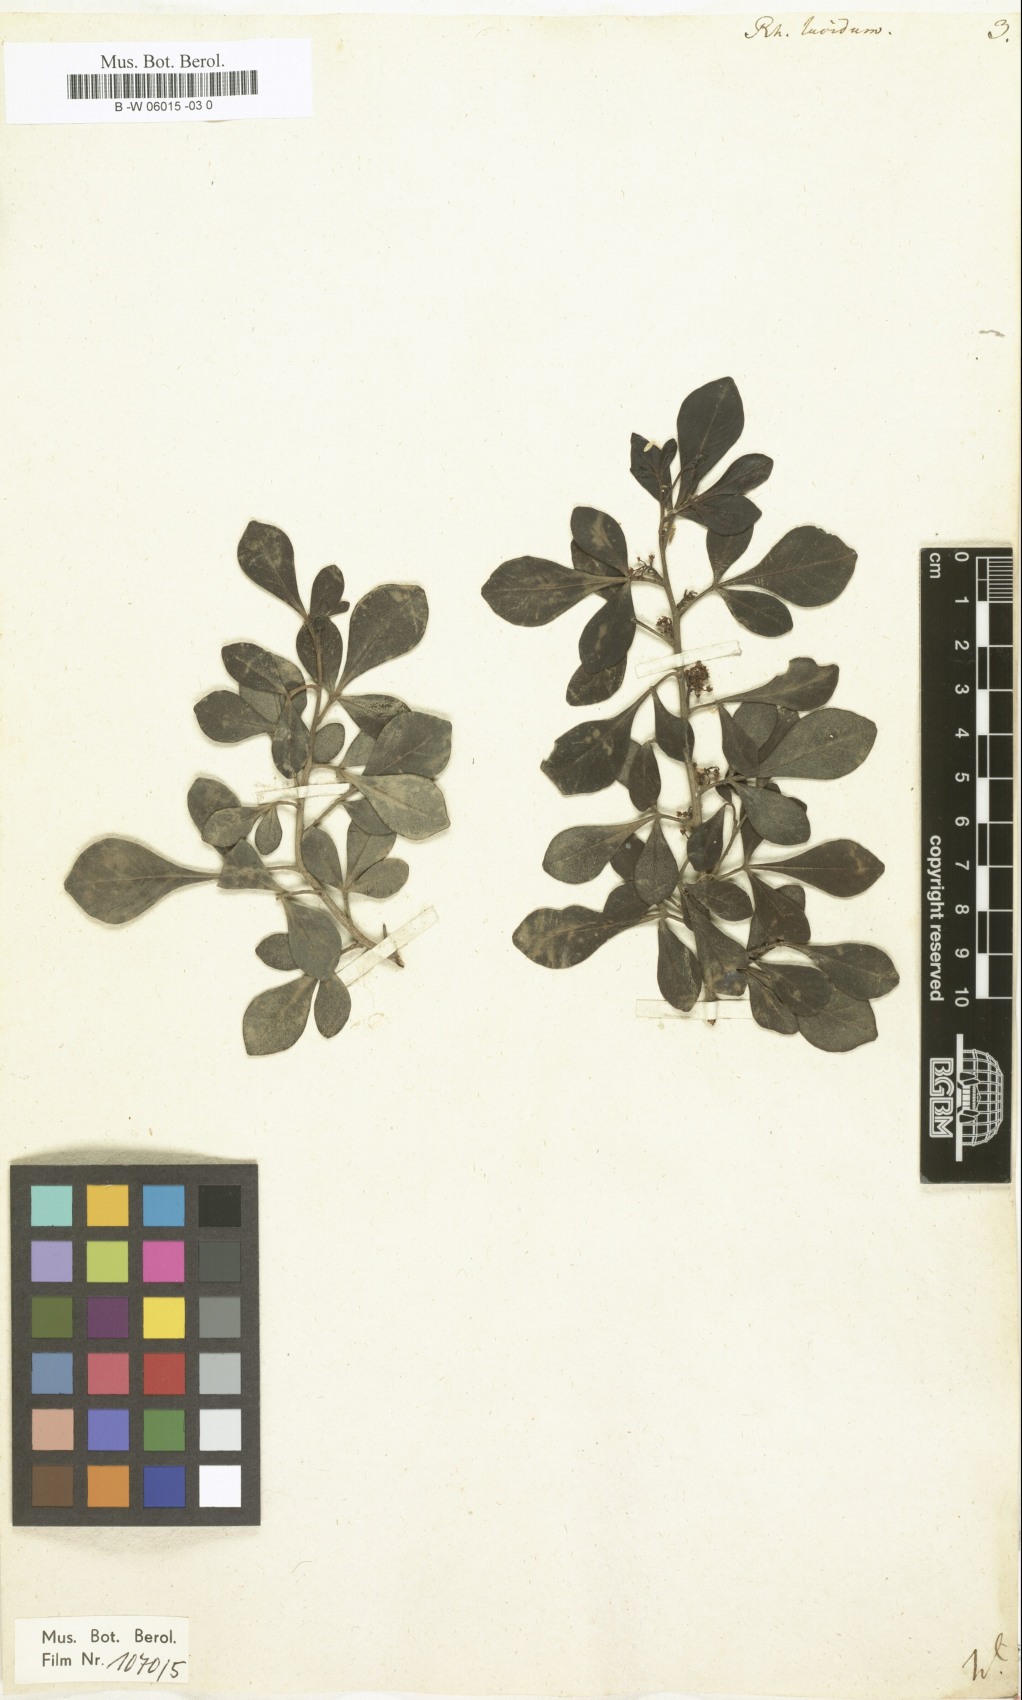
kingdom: Plantae
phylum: Tracheophyta
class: Magnoliopsida
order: Sapindales
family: Anacardiaceae
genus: Searsia
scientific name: Searsia
